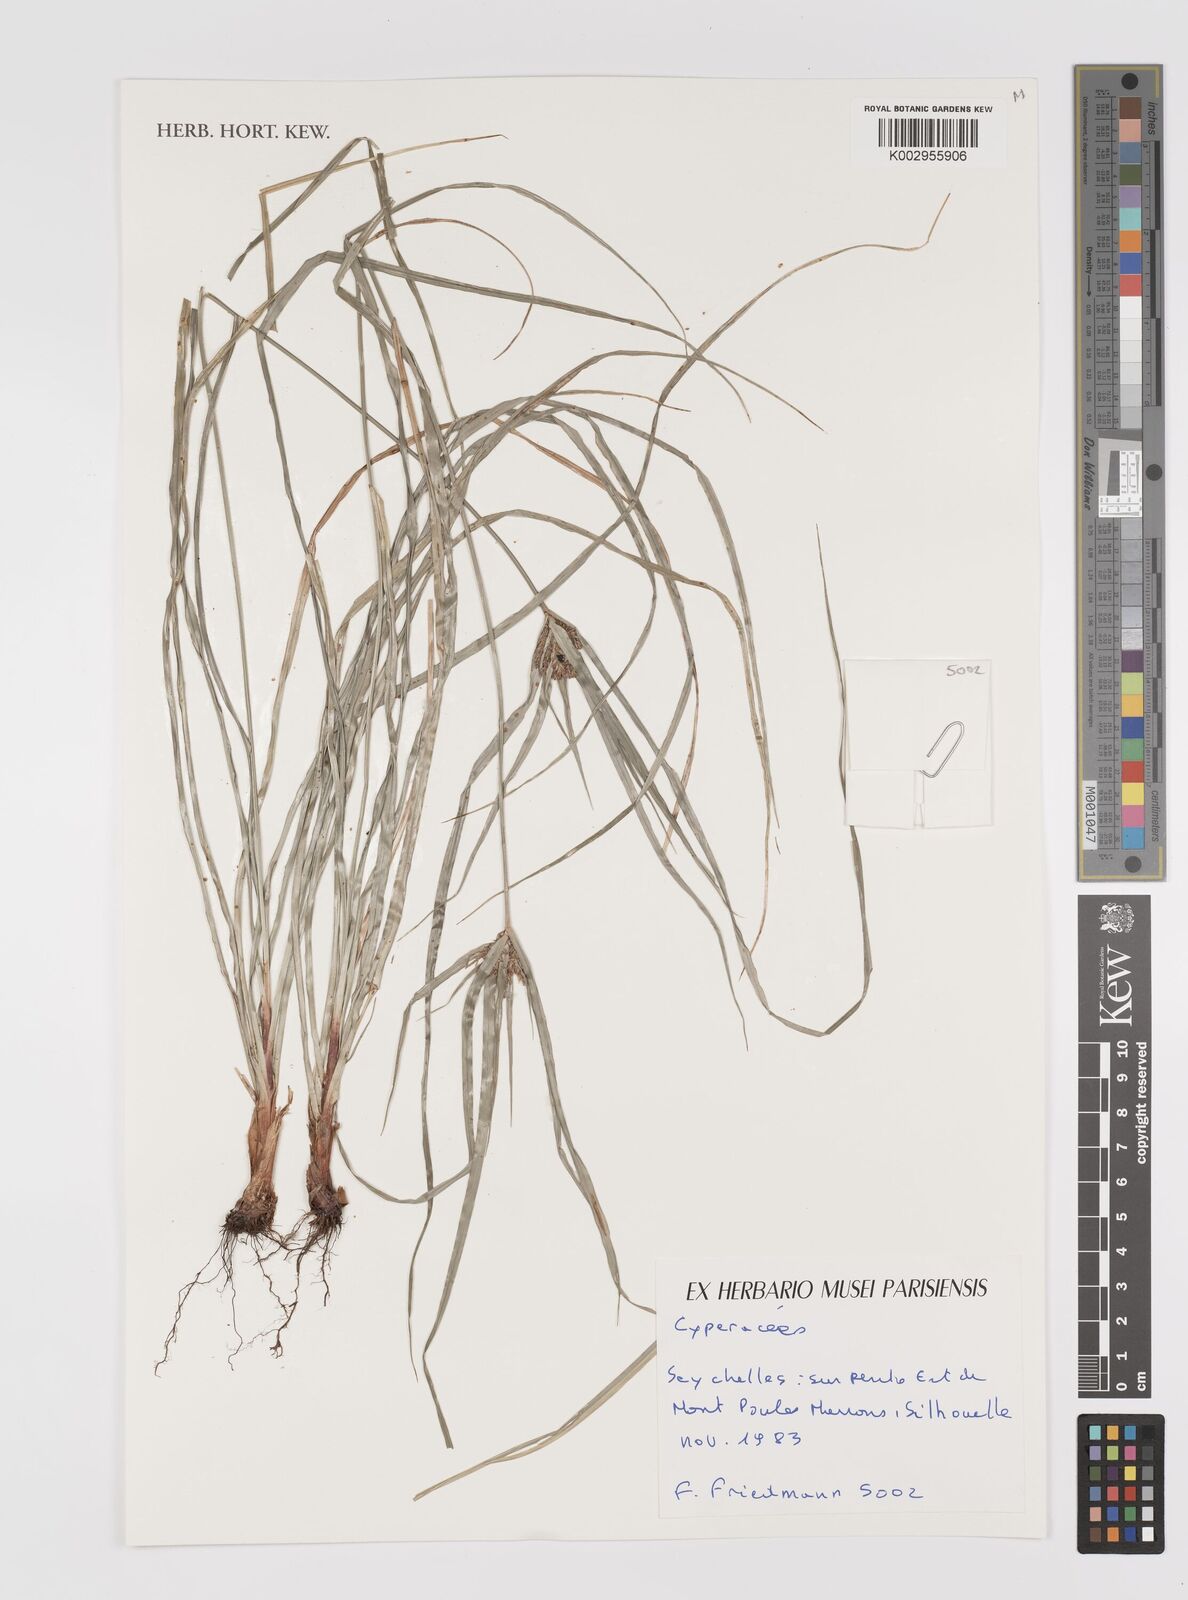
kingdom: Plantae
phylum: Tracheophyta
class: Liliopsida
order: Poales
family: Cyperaceae
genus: Cyperus
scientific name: Cyperus
